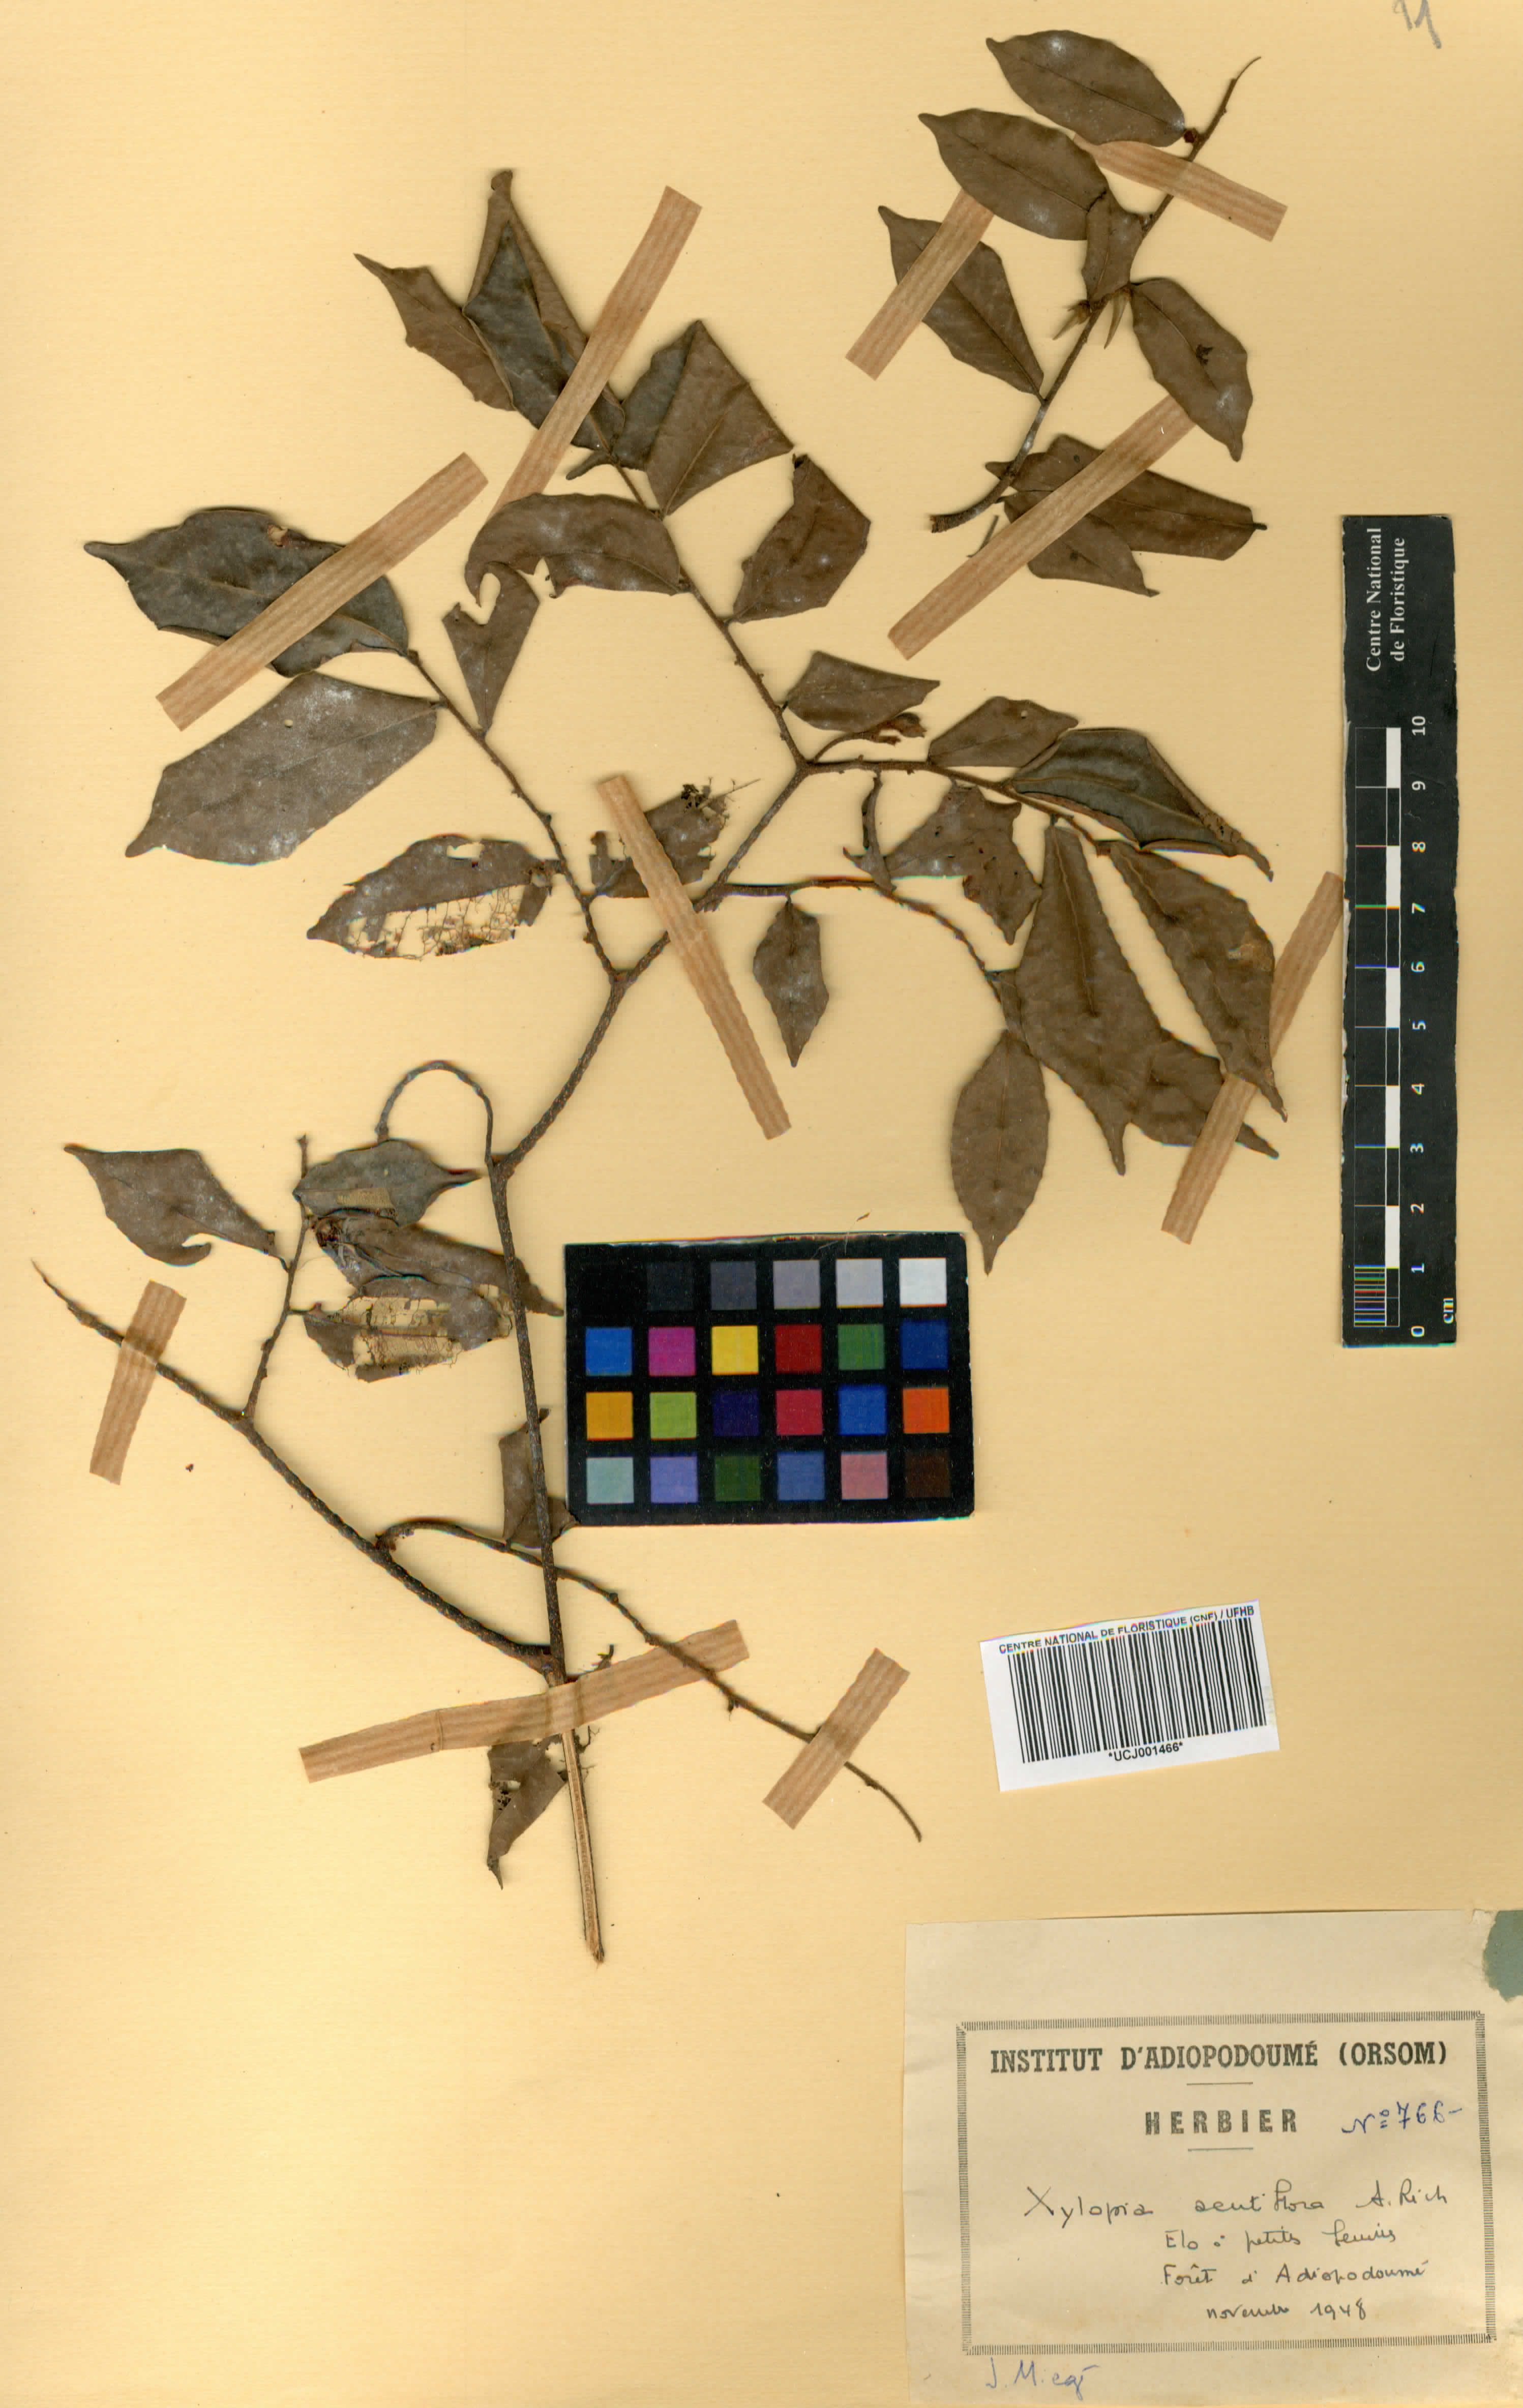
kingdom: Plantae
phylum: Tracheophyta
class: Magnoliopsida
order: Magnoliales
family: Annonaceae
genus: Xylopia
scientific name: Xylopia acutiflora
